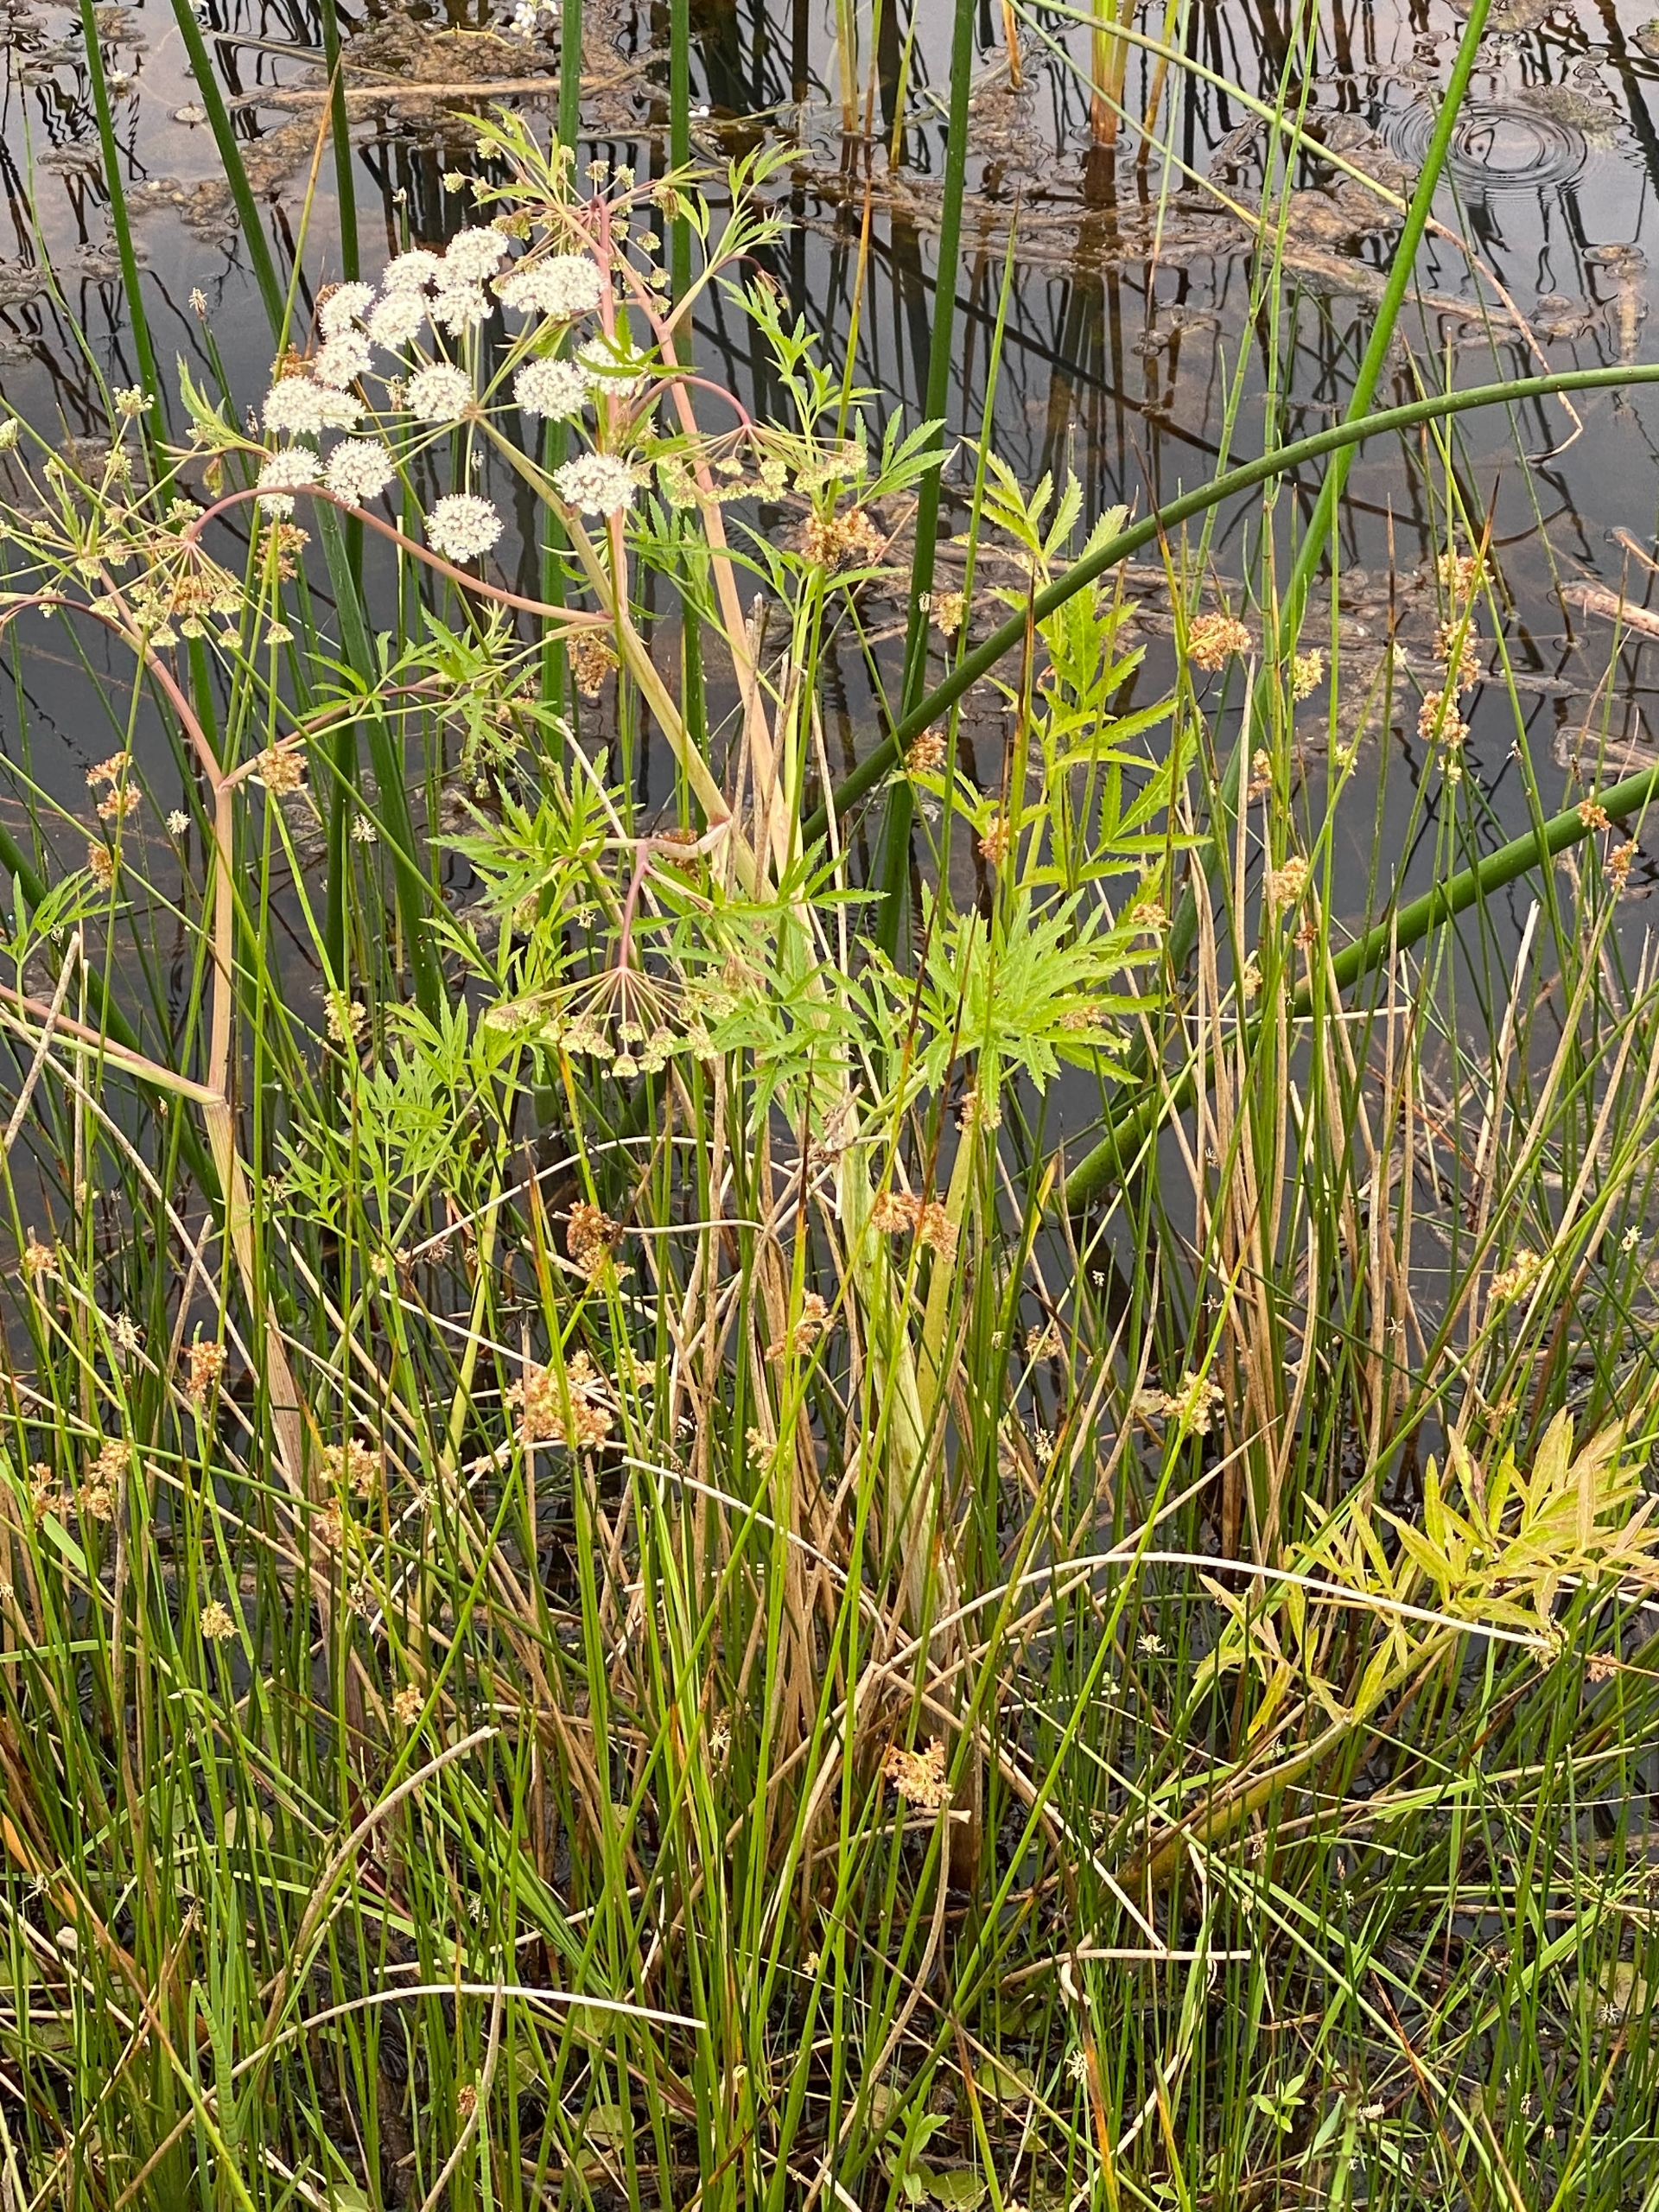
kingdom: Plantae
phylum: Tracheophyta
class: Magnoliopsida
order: Apiales
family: Apiaceae
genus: Cicuta
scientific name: Cicuta virosa
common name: Gifttyde
